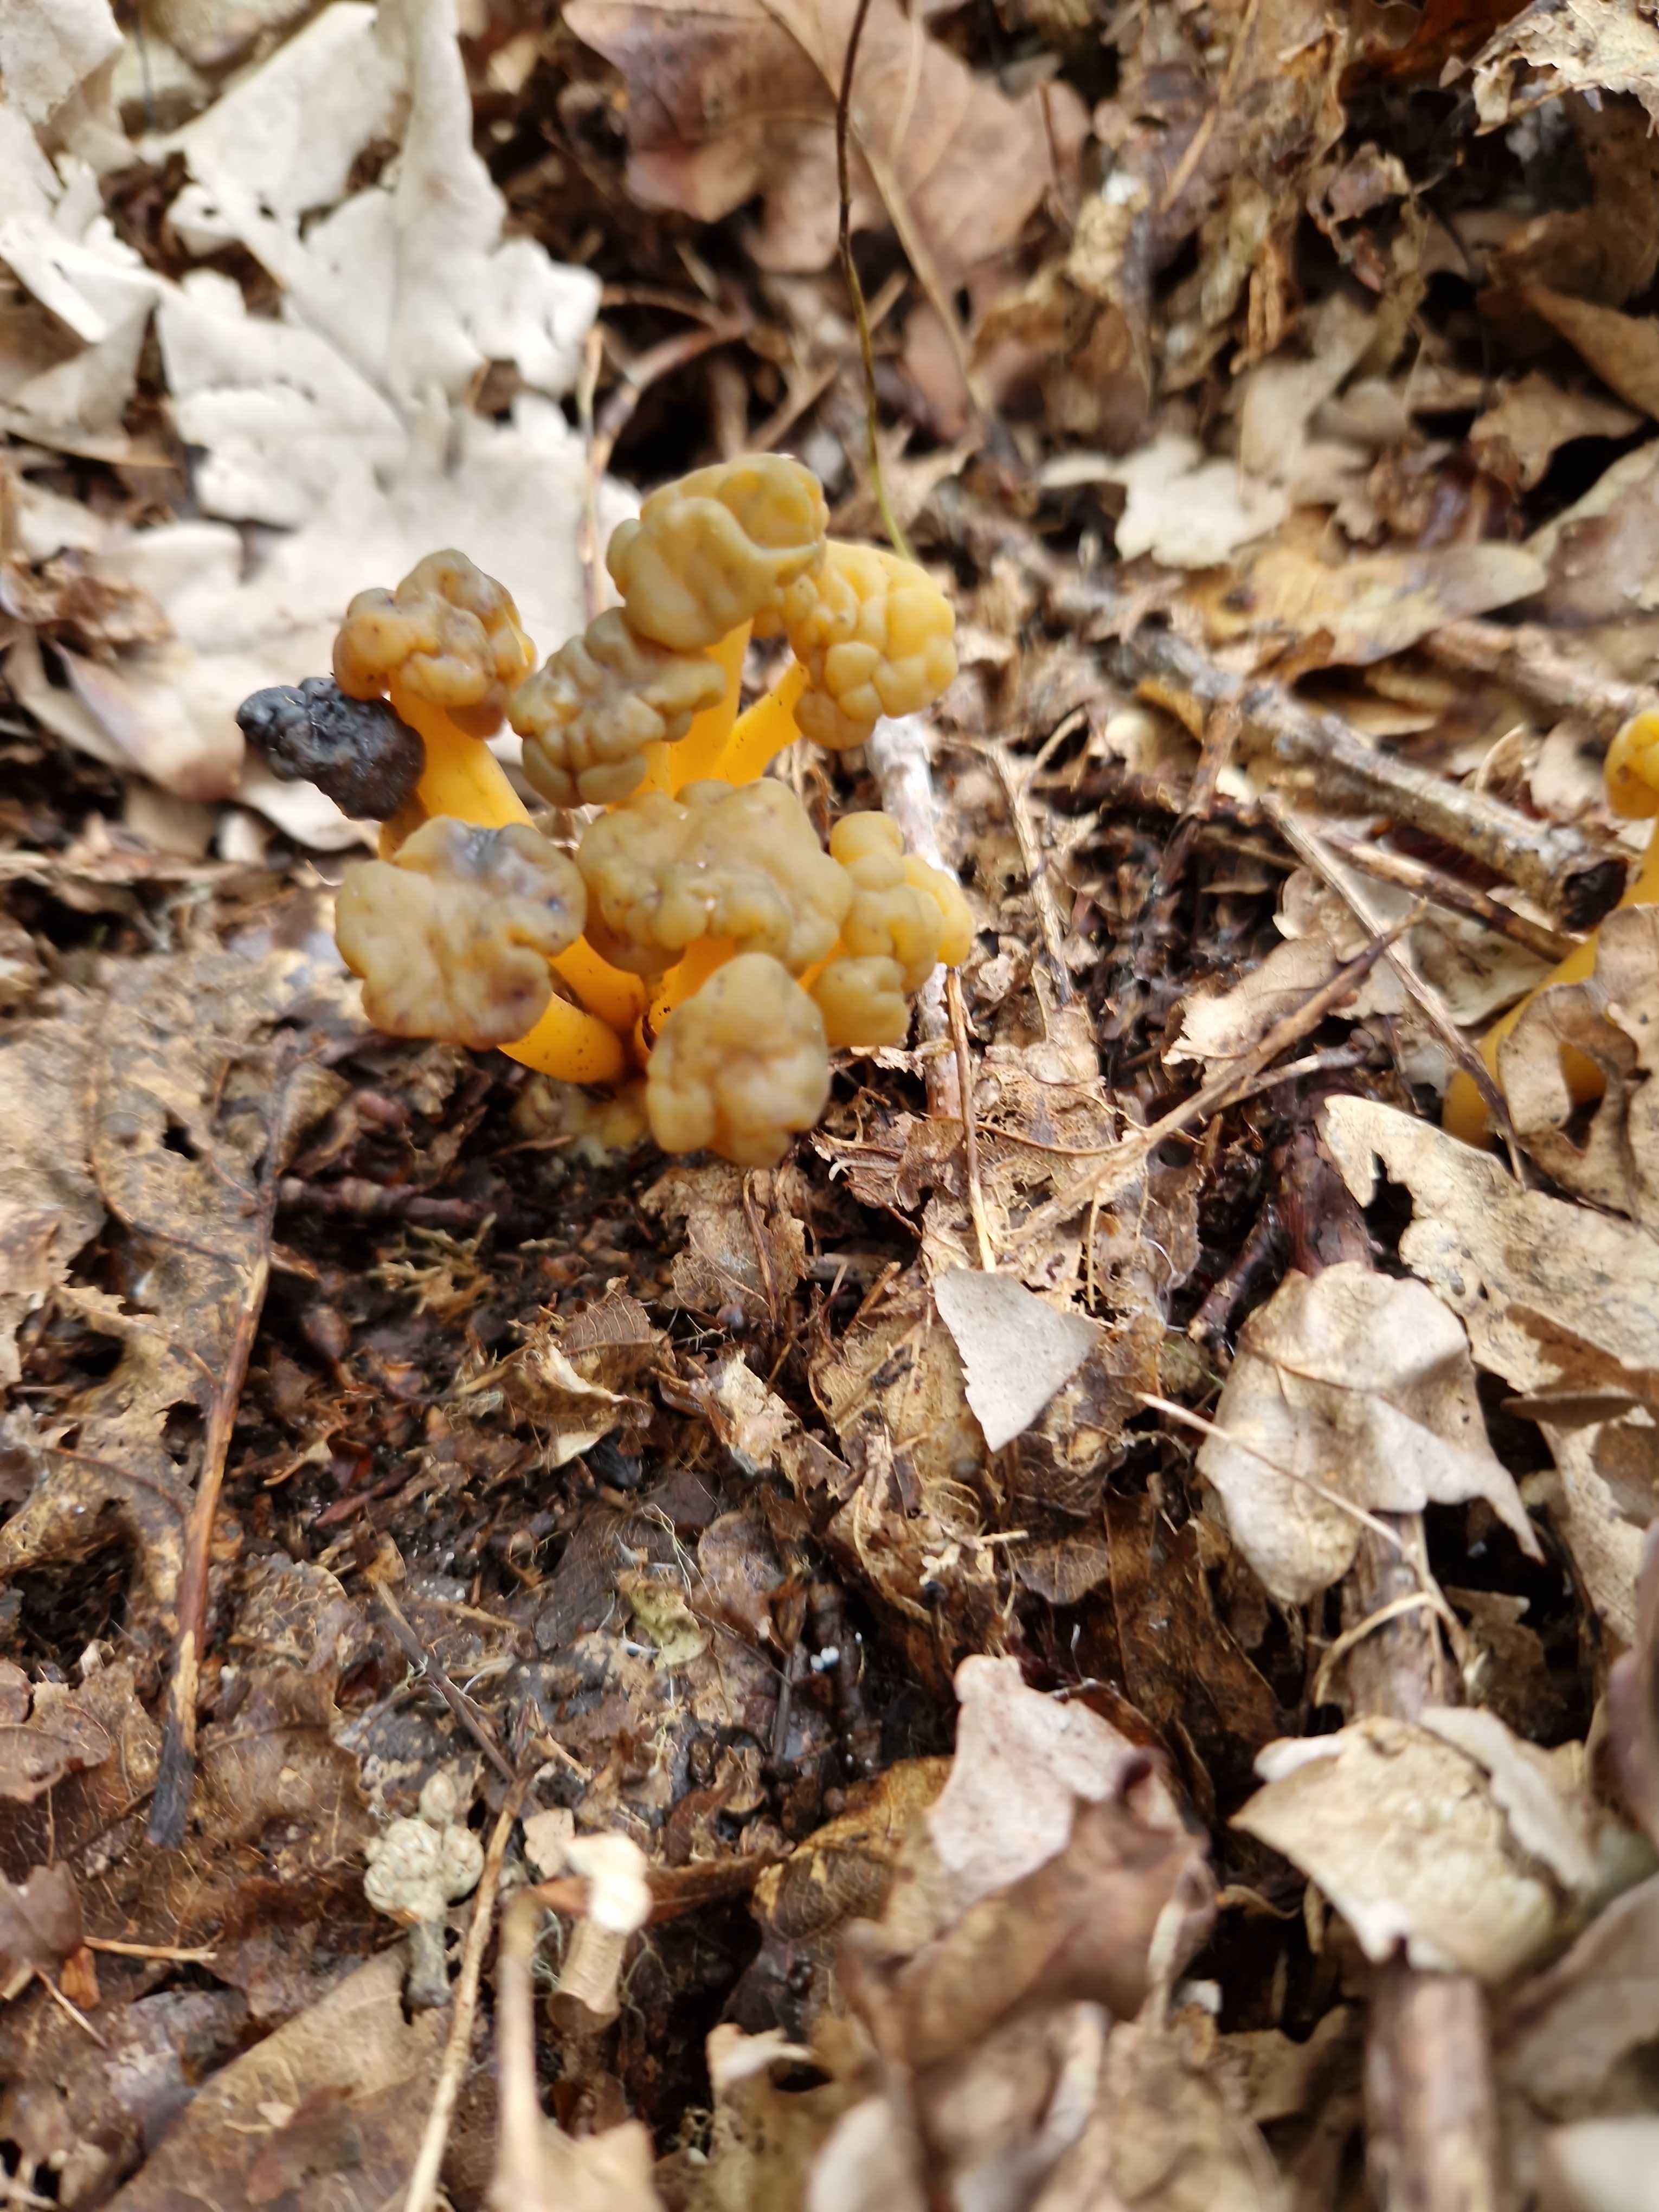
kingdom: Fungi
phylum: Ascomycota
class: Leotiomycetes
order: Leotiales
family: Leotiaceae
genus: Leotia
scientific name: Leotia lubrica
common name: ravsvamp
